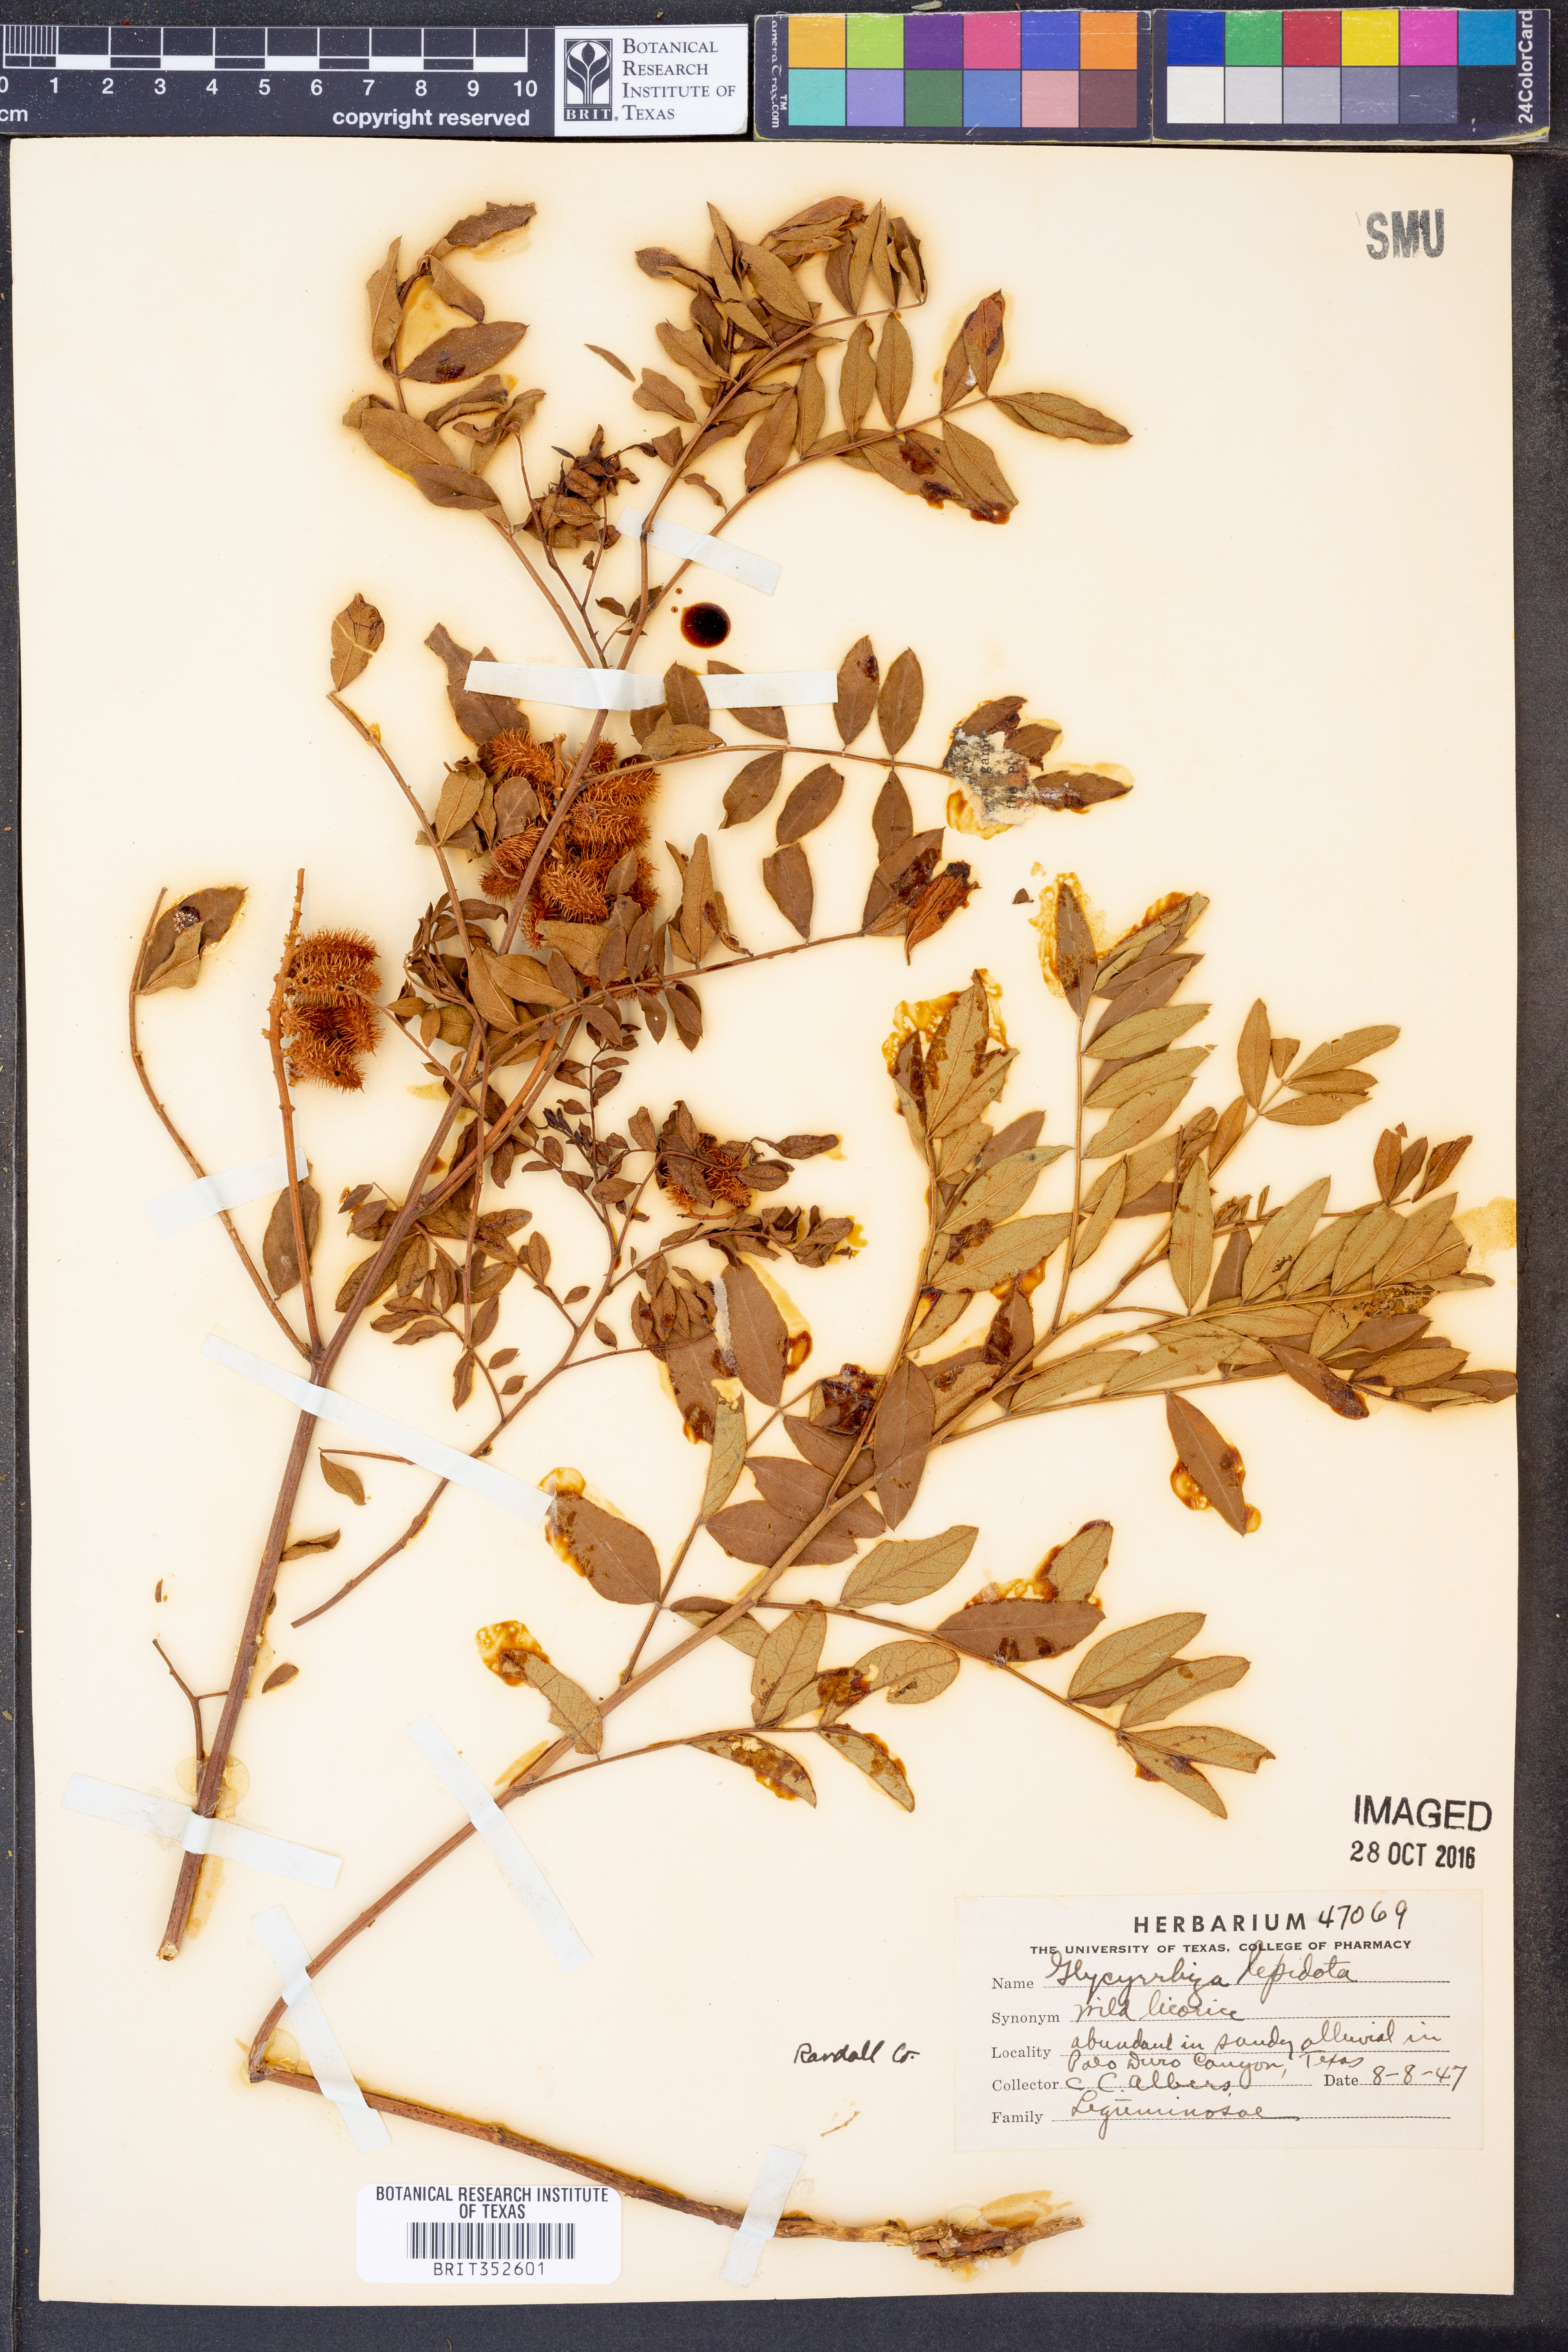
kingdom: Plantae
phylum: Tracheophyta
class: Magnoliopsida
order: Fabales
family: Fabaceae
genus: Glycyrrhiza
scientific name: Glycyrrhiza lepidota
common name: American liquorice
